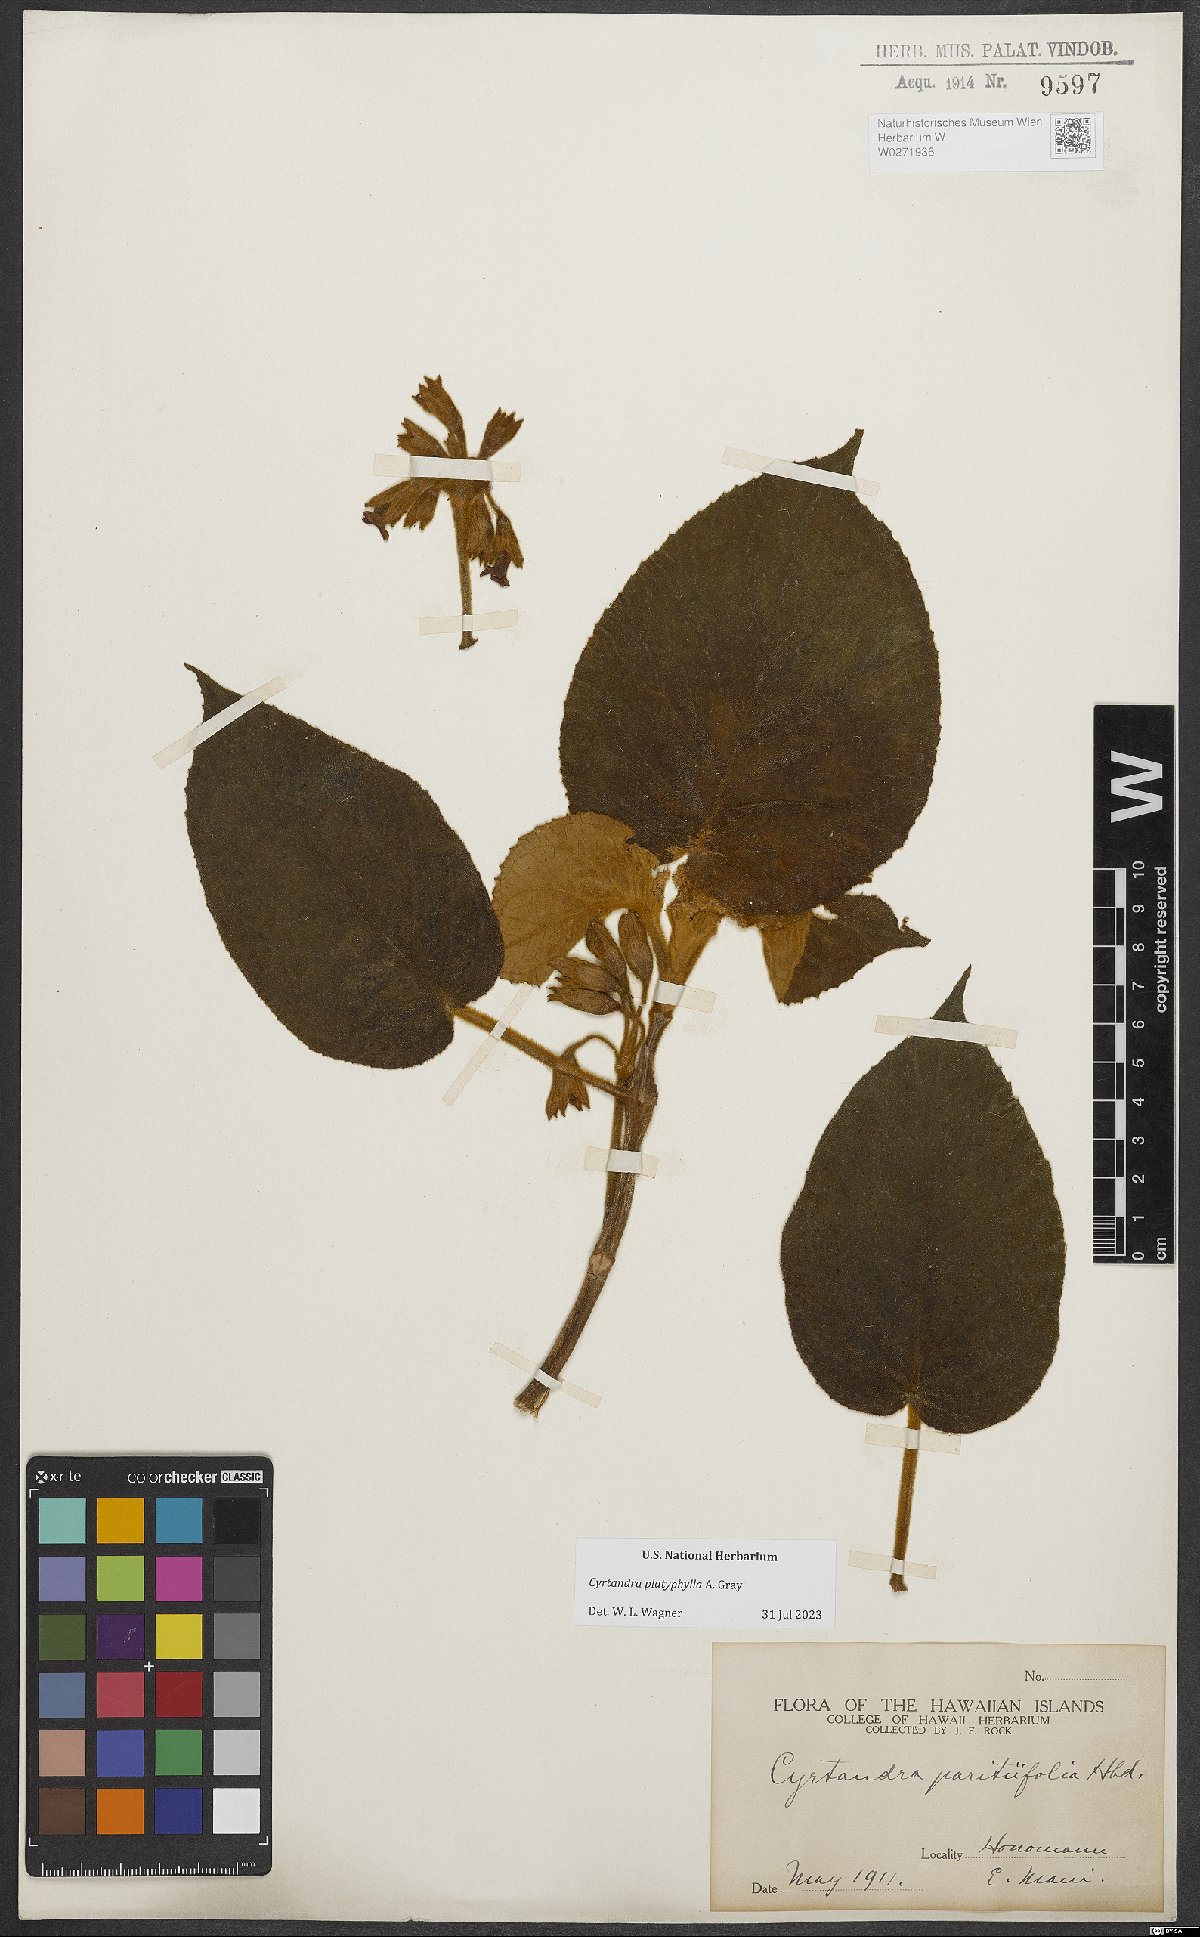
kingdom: Plantae
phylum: Tracheophyta
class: Magnoliopsida
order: Lamiales
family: Gesneriaceae
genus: Cyrtandra
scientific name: Cyrtandra platyphylla
